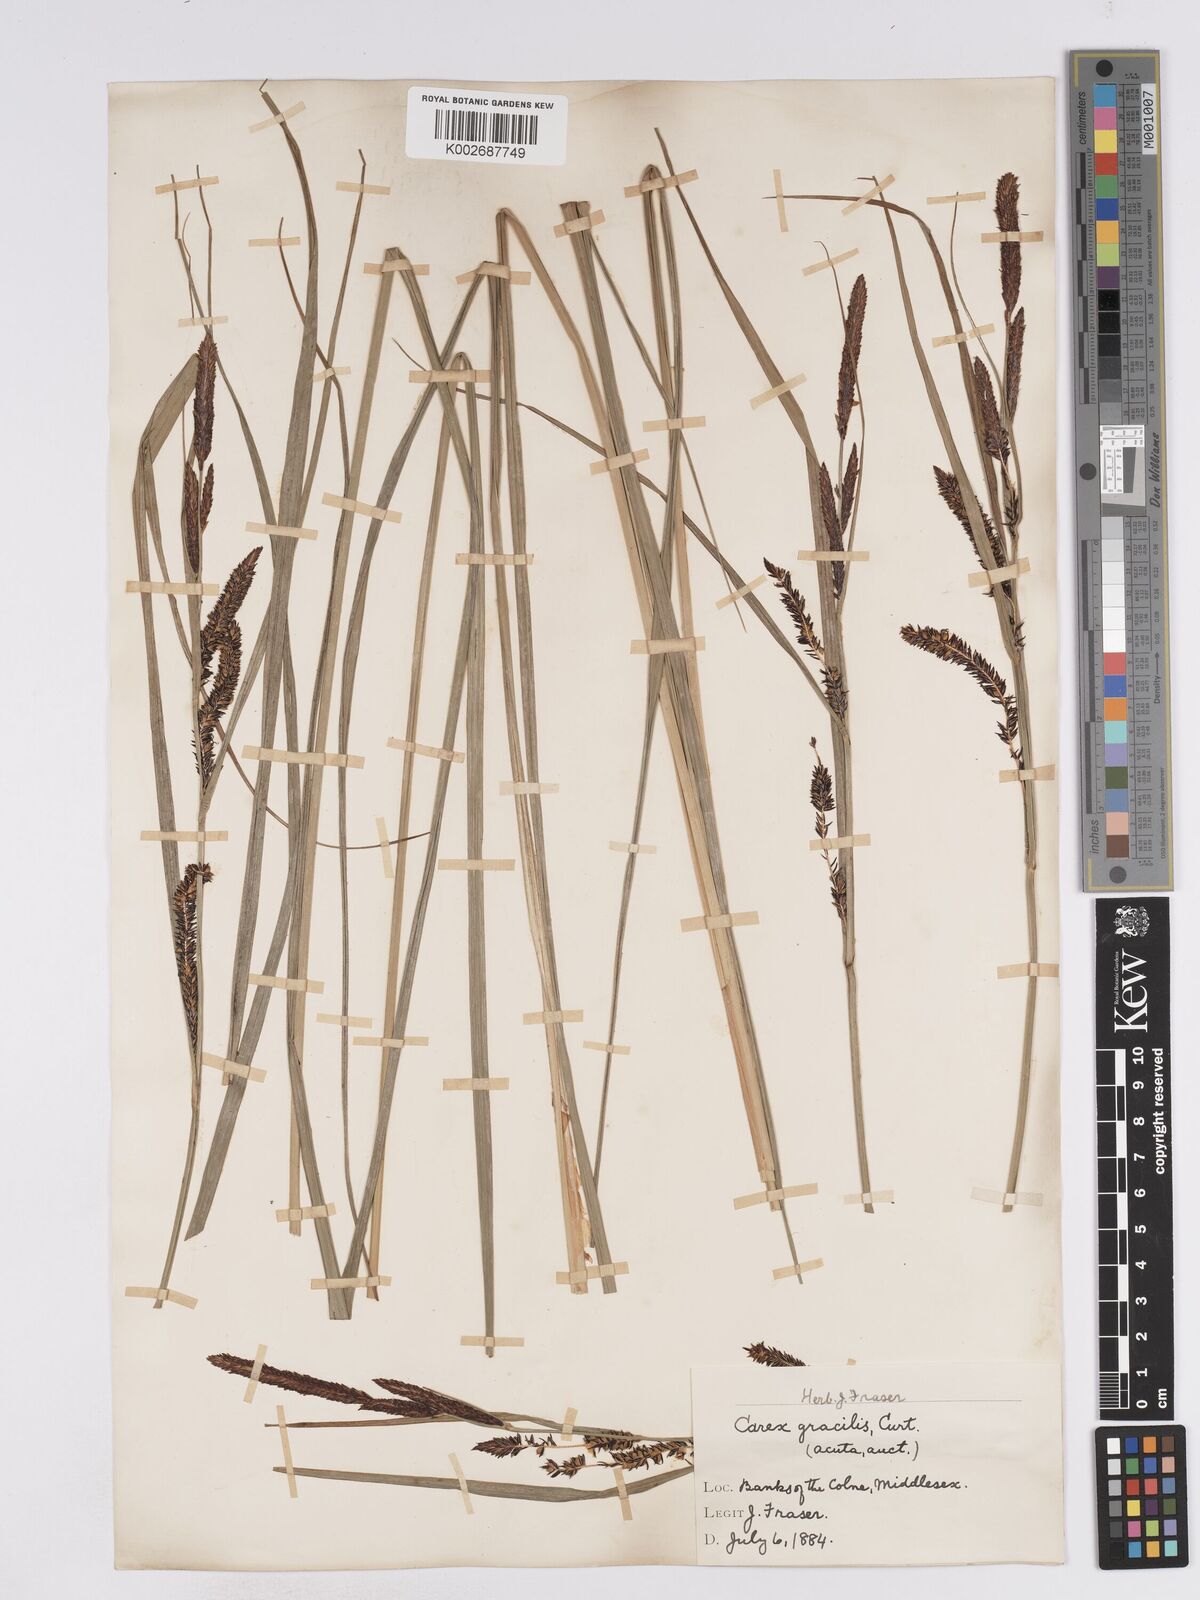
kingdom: Plantae
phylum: Tracheophyta
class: Liliopsida
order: Poales
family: Cyperaceae
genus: Carex
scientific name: Carex acuta
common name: Slender tufted-sedge
